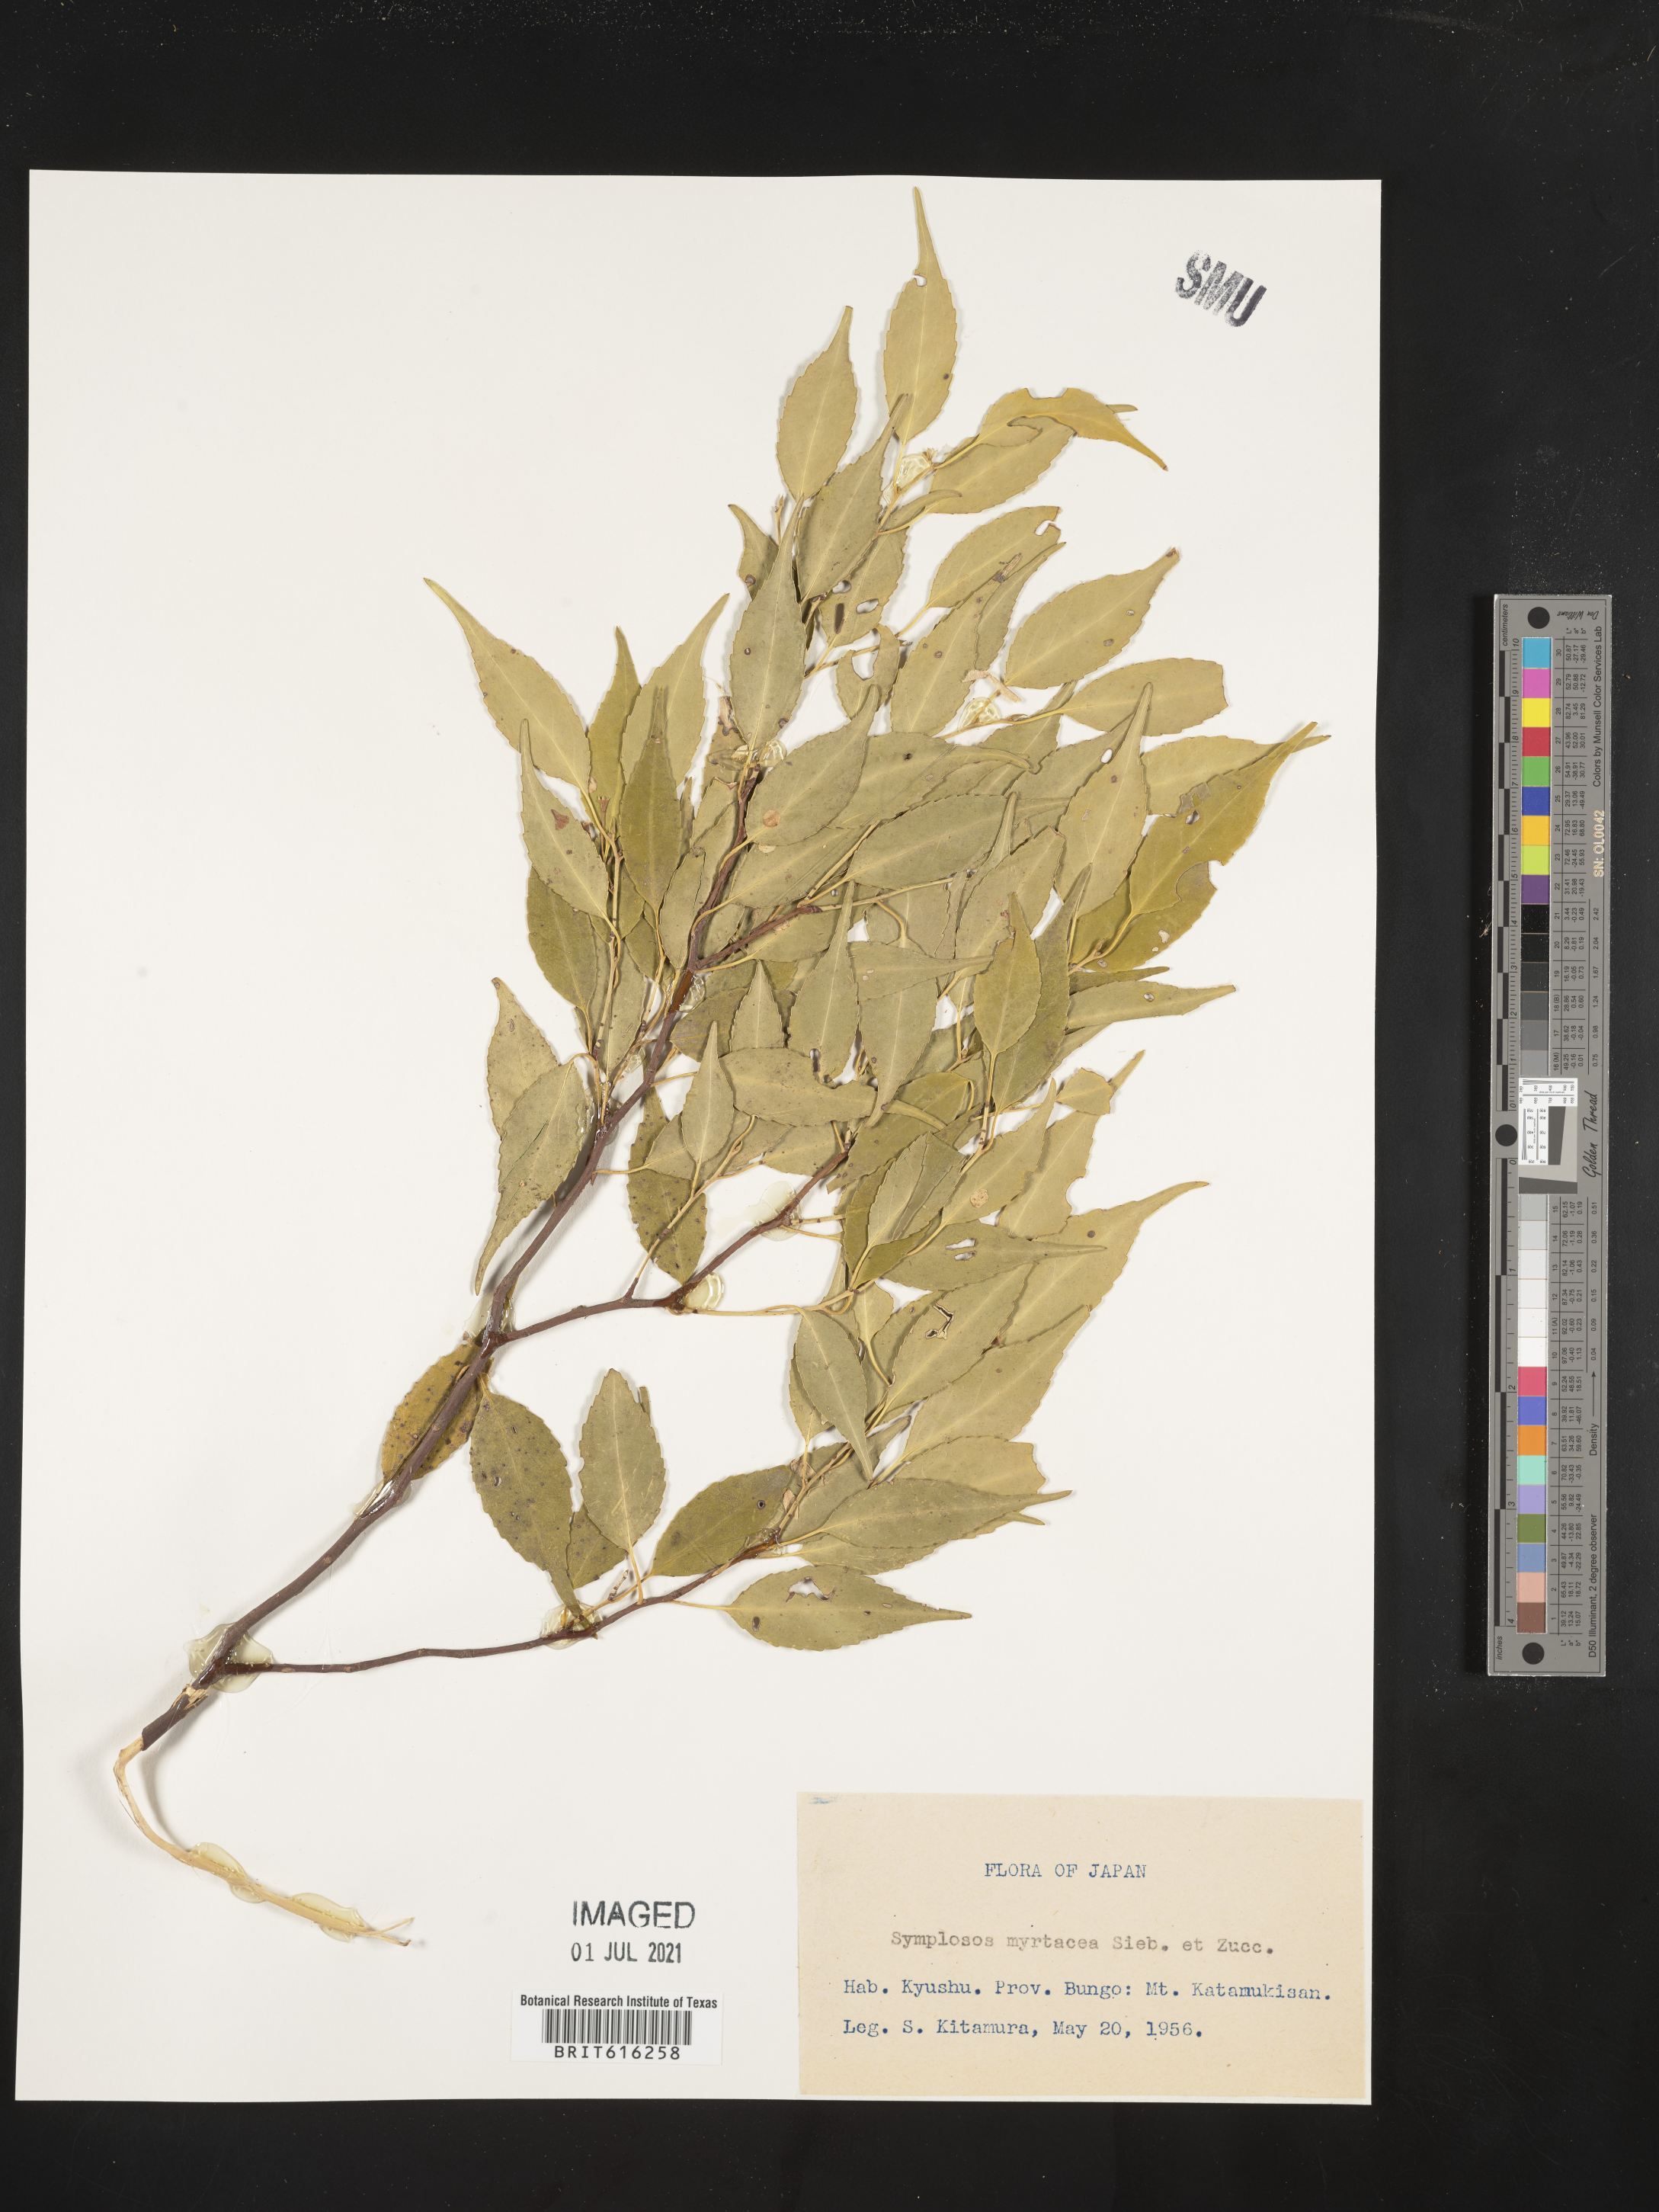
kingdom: Plantae
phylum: Tracheophyta
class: Magnoliopsida
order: Ericales
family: Symplocaceae
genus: Symplocos
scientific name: Symplocos myrtacea
